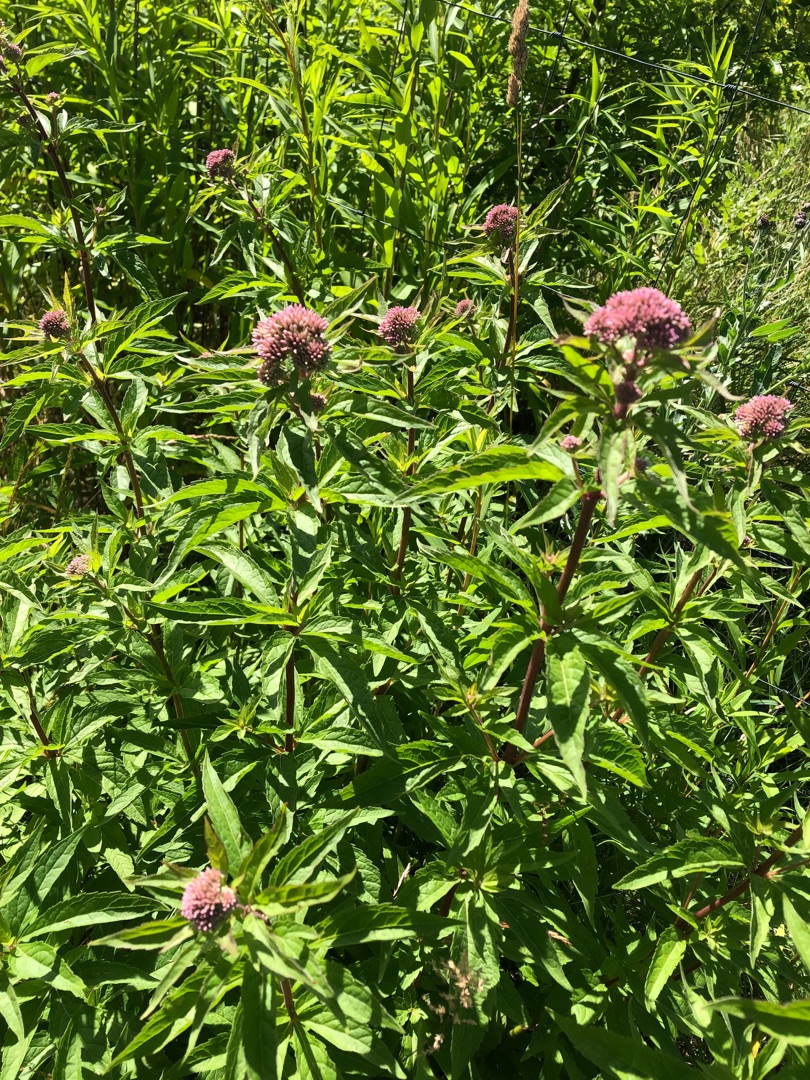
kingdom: Plantae
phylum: Tracheophyta
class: Magnoliopsida
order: Asterales
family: Asteraceae
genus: Eupatorium
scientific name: Eupatorium cannabinum
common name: Hjortetrøst
